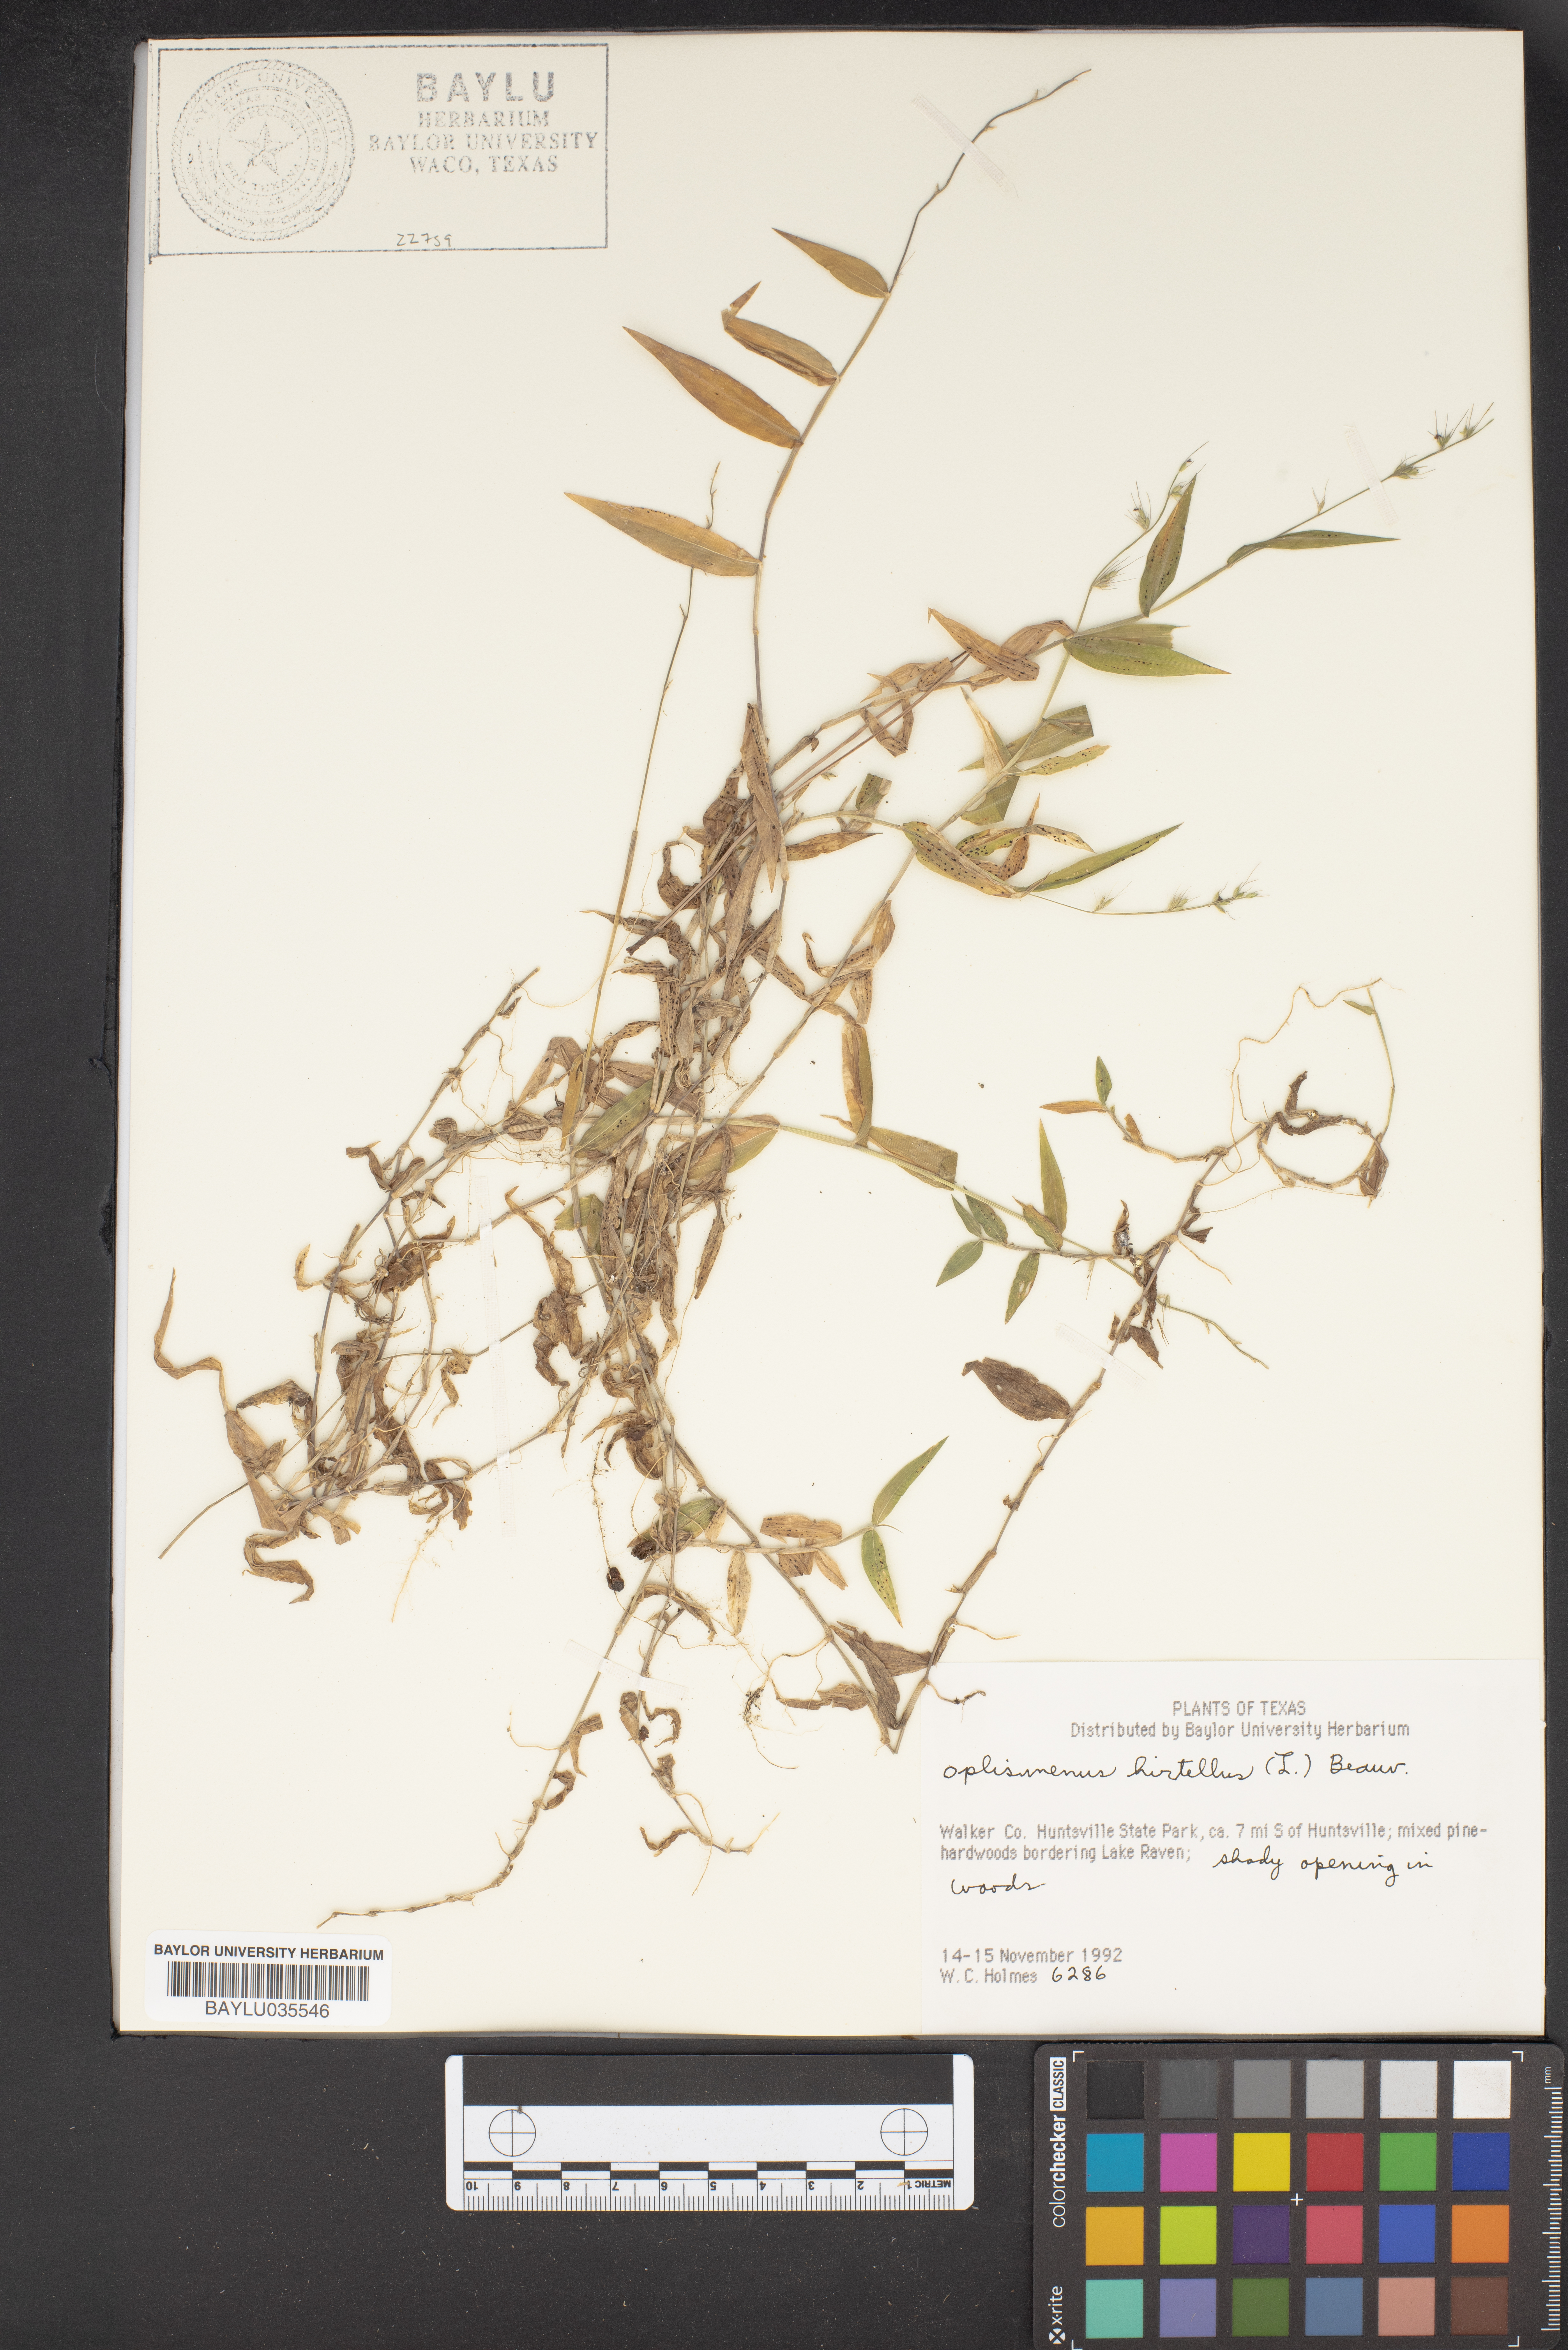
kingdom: Plantae
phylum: Tracheophyta
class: Liliopsida
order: Poales
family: Poaceae
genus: Oplismenus
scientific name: Oplismenus hirtellus
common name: Basketgrass
